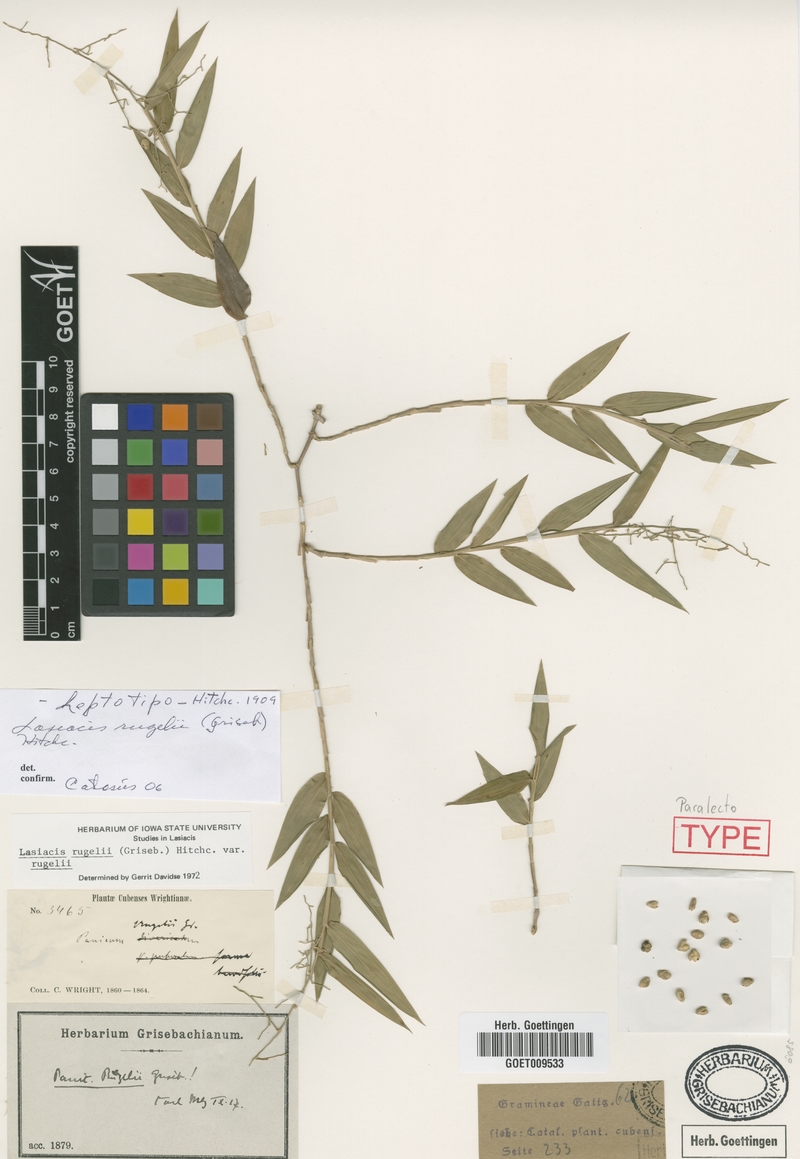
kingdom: Plantae
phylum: Tracheophyta
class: Liliopsida
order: Poales
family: Poaceae
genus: Lasiacis
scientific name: Lasiacis rugelii
